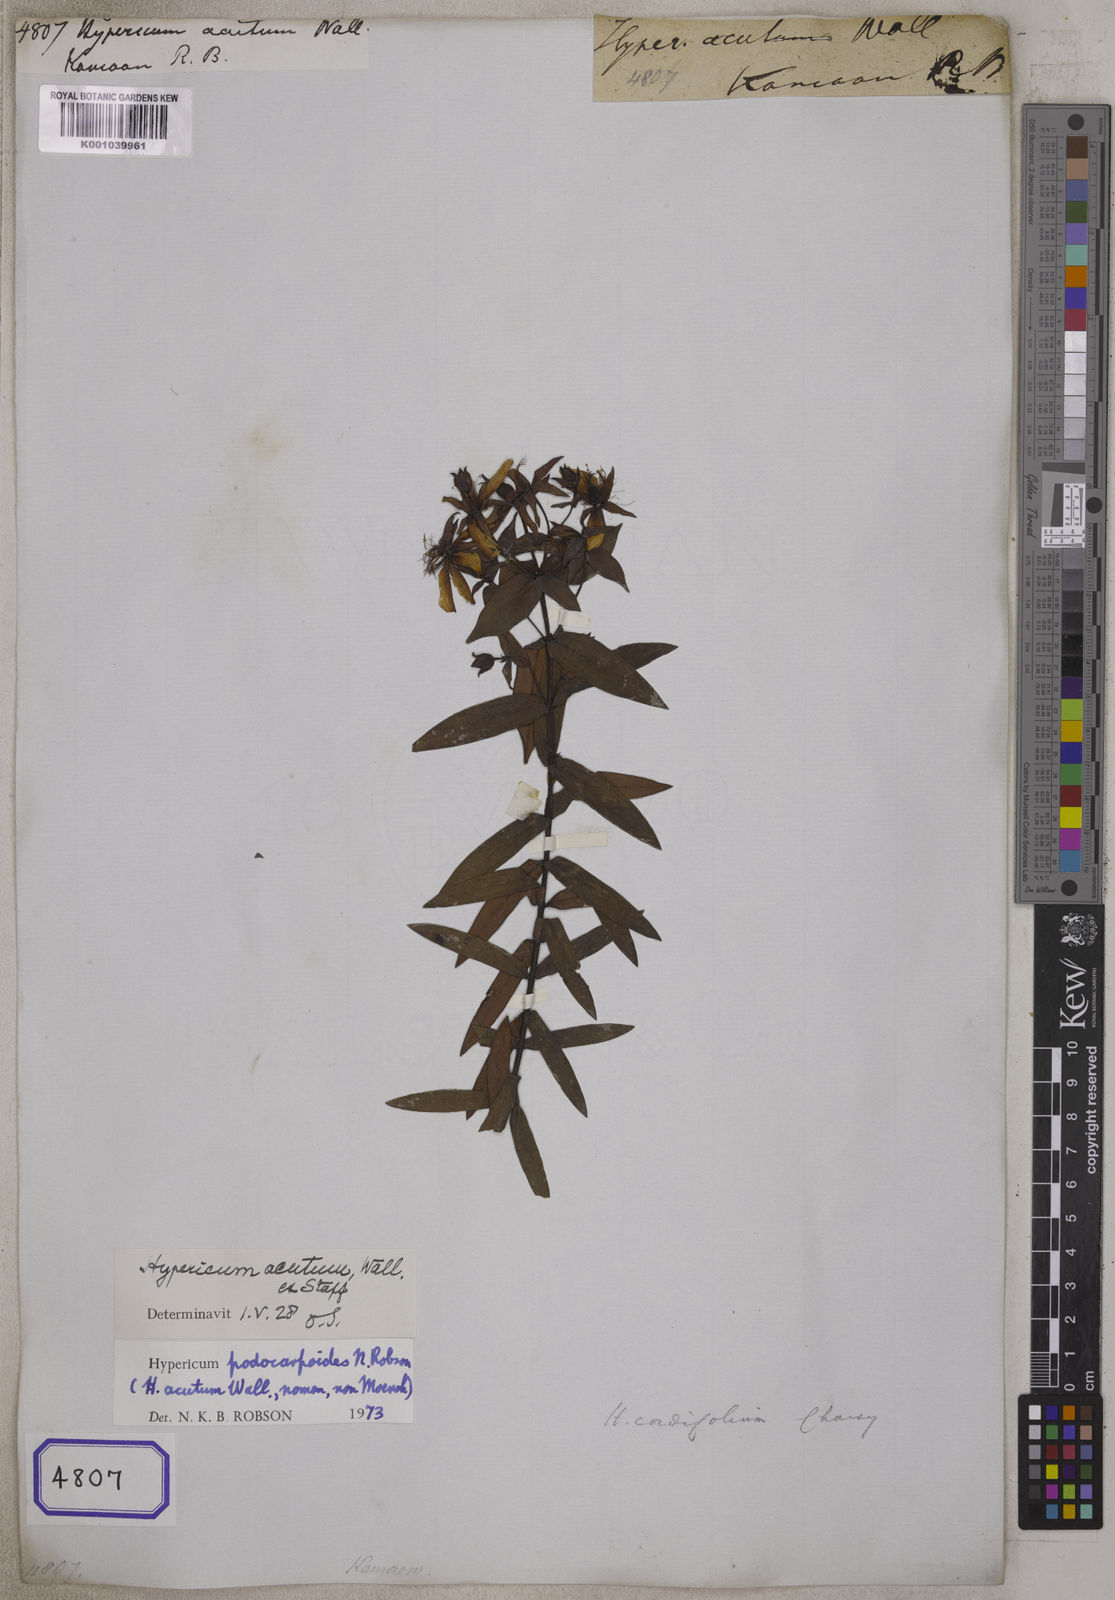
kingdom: Plantae
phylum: Tracheophyta
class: Magnoliopsida
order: Malpighiales
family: Hypericaceae
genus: Hypericum
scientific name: Hypericum podocarpoides
